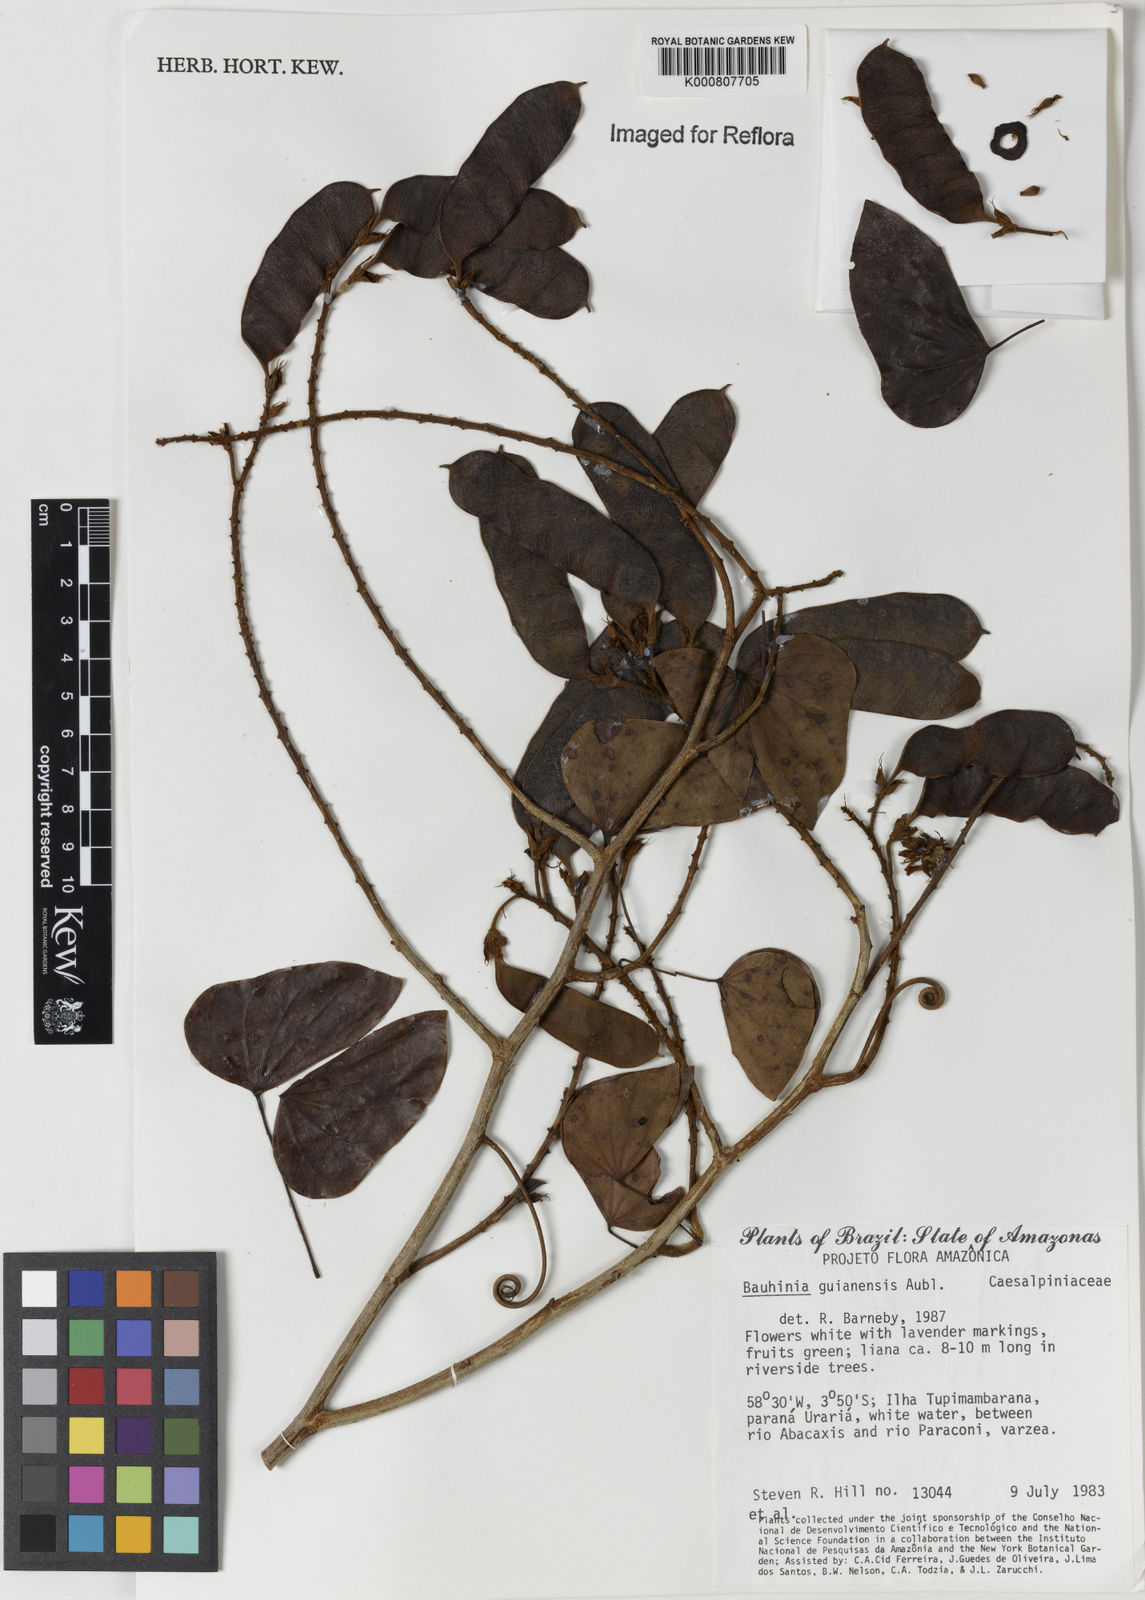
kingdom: Plantae
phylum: Tracheophyta
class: Magnoliopsida
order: Fabales
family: Fabaceae
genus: Schnella
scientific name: Schnella guianensis
